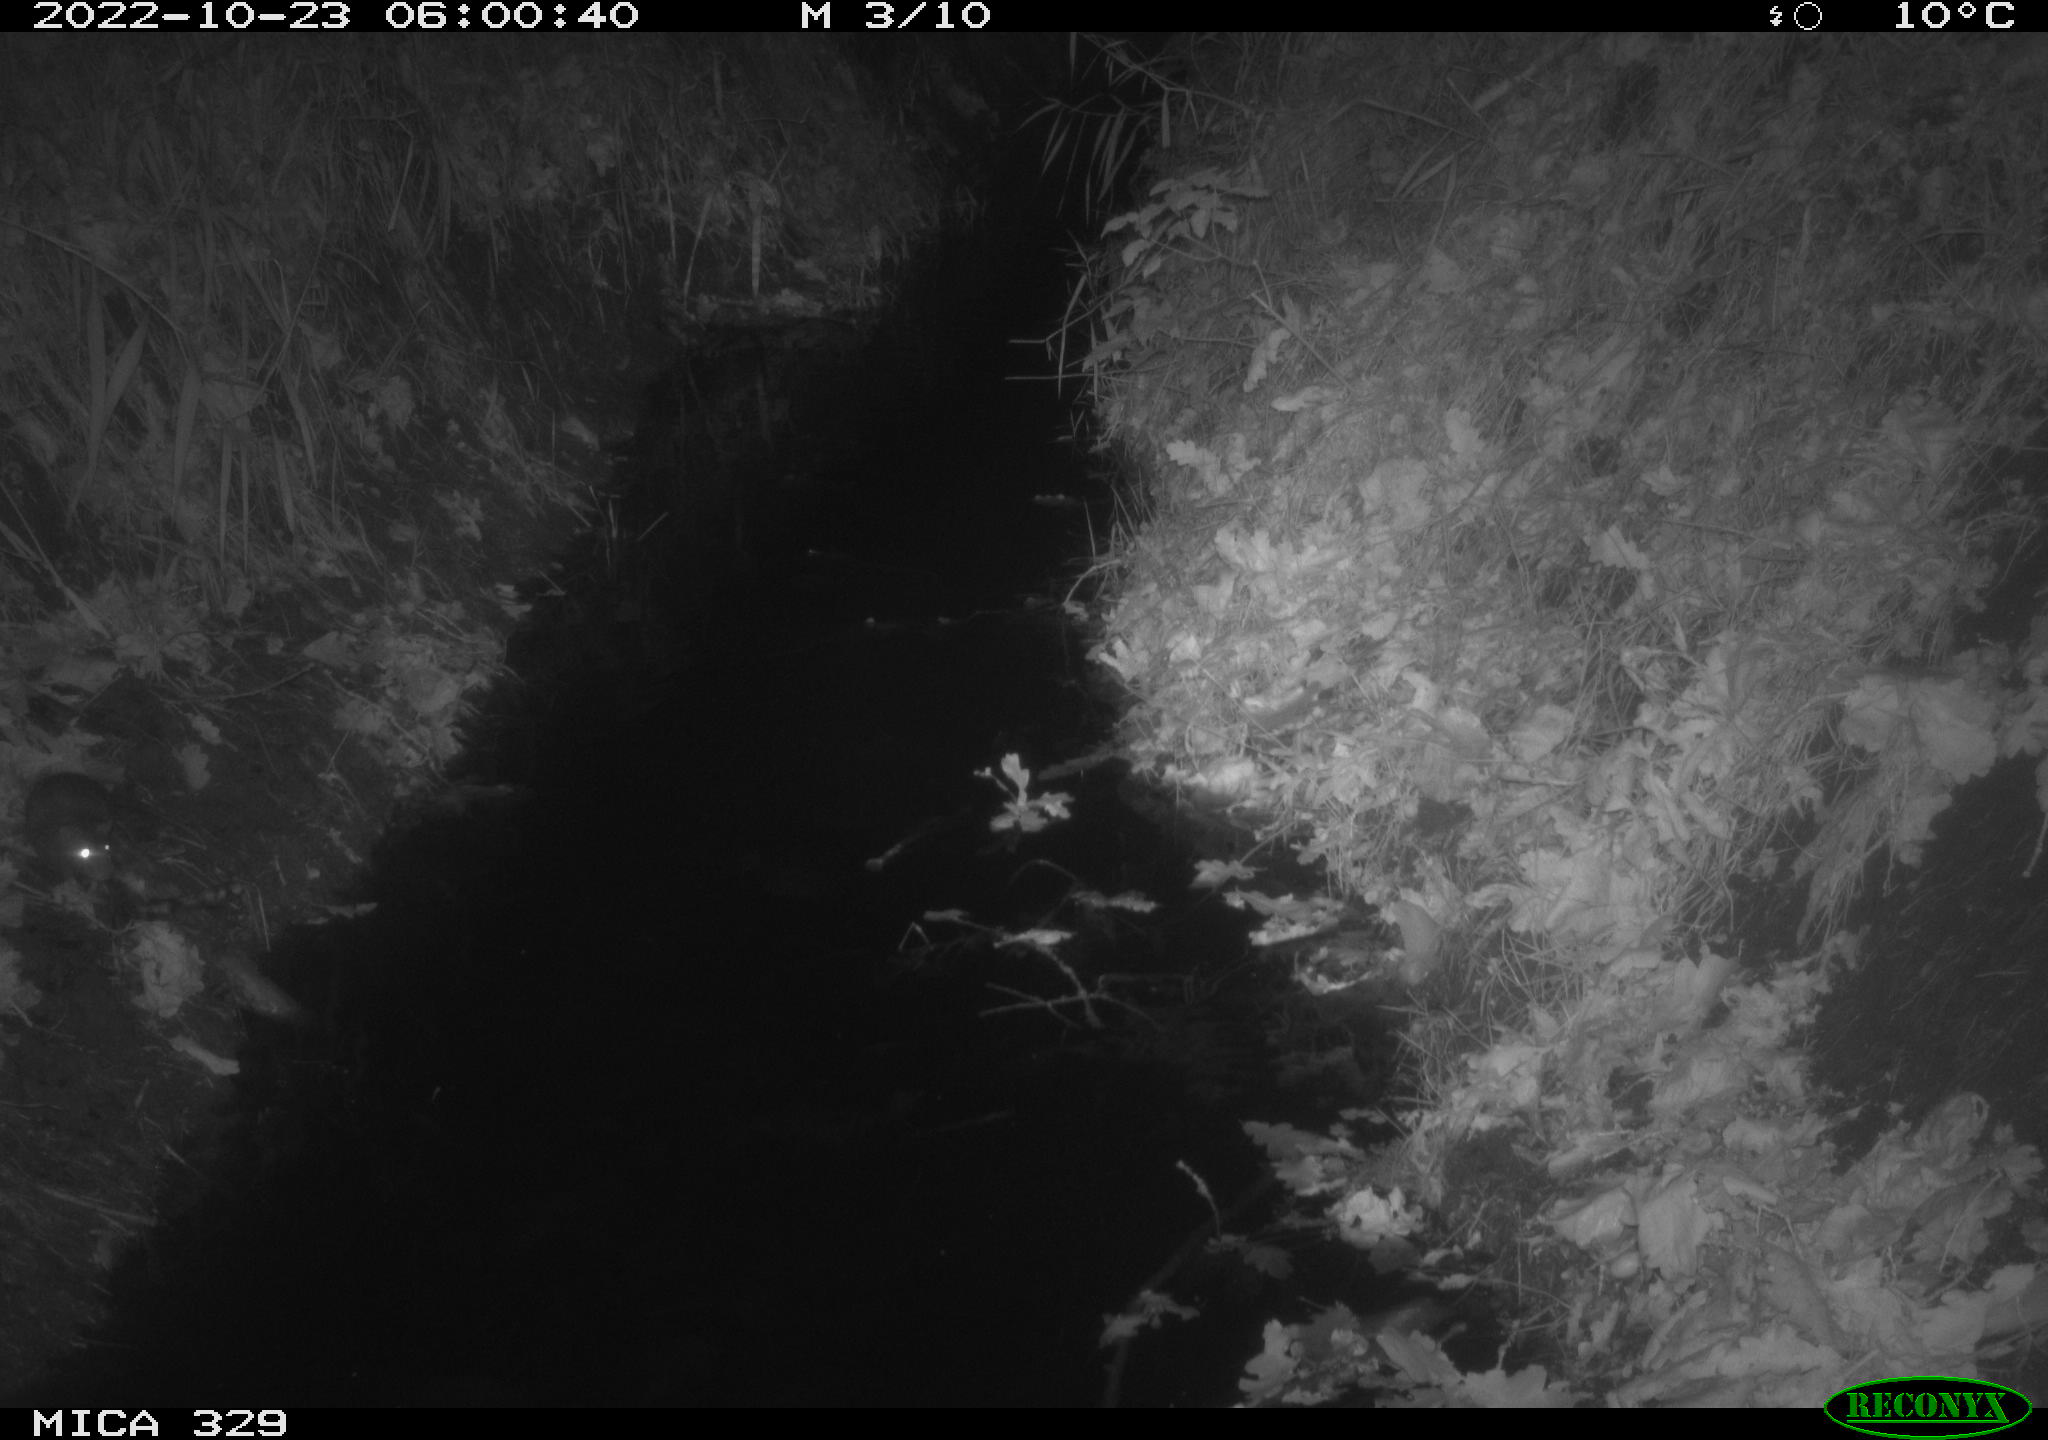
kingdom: Animalia
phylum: Chordata
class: Mammalia
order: Rodentia
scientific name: Rodentia
